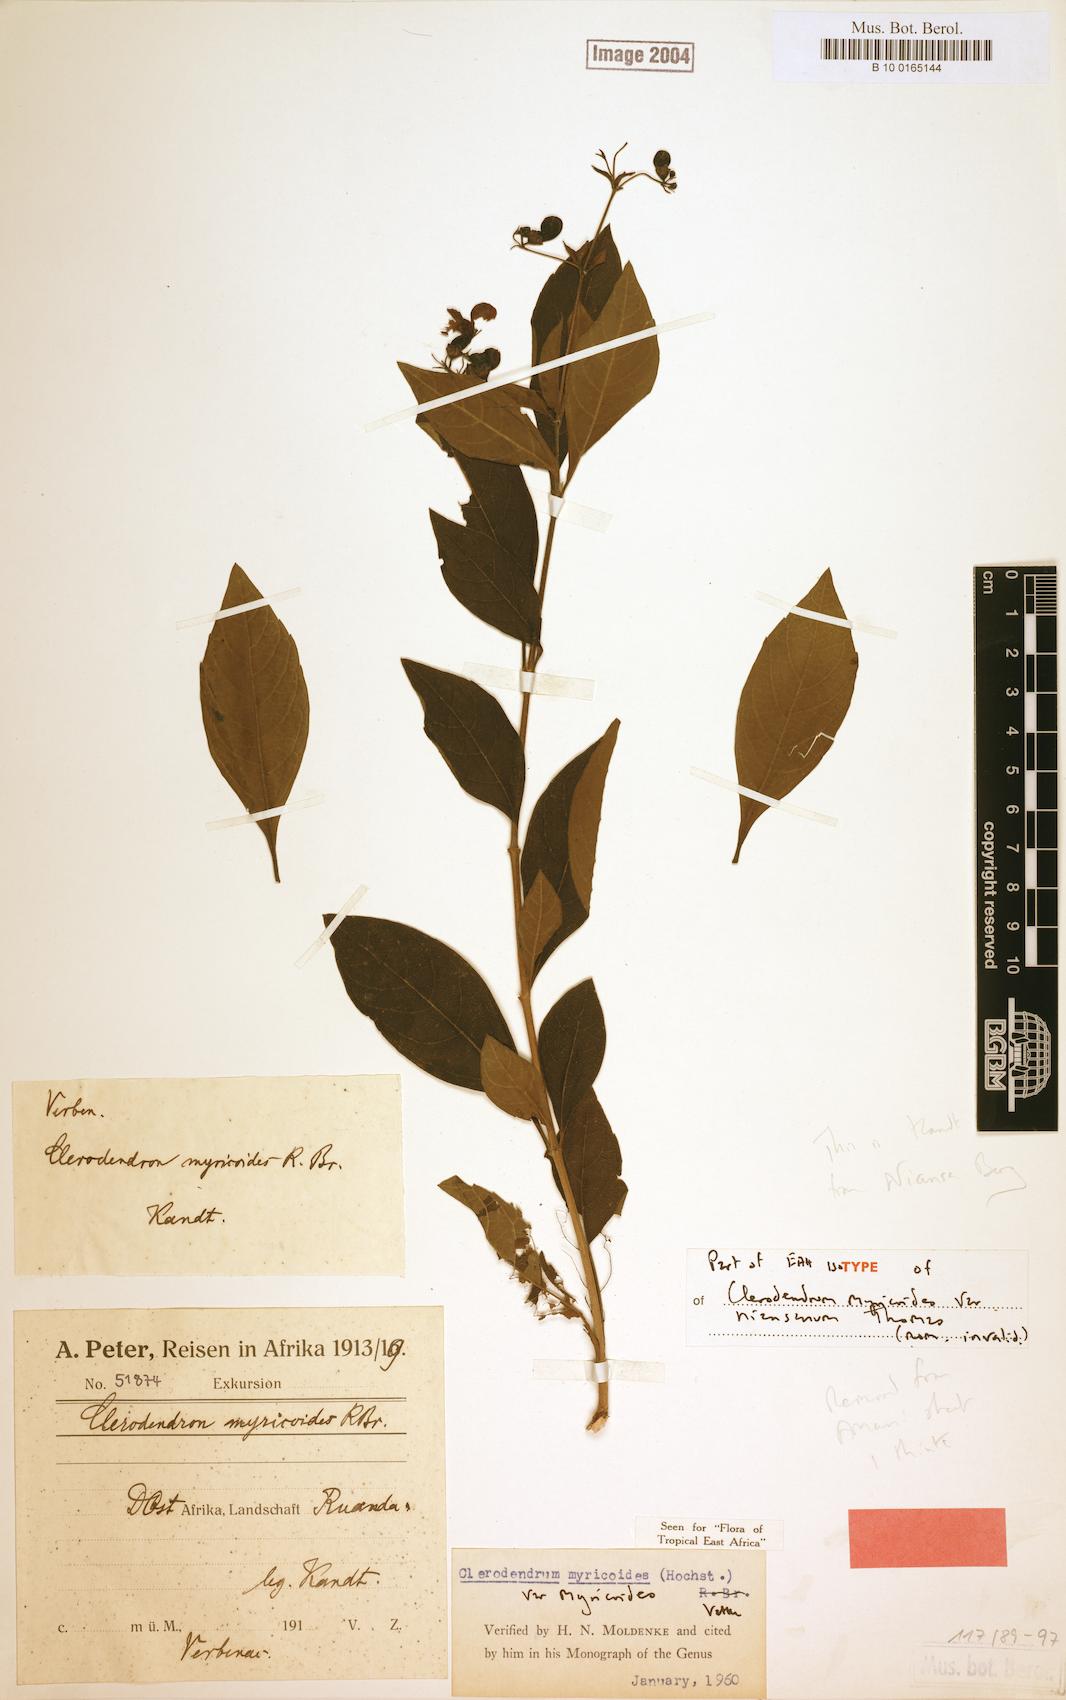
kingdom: Plantae
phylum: Tracheophyta
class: Magnoliopsida
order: Lamiales
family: Lamiaceae
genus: Clerodendrum
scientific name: Clerodendrum myricoides
